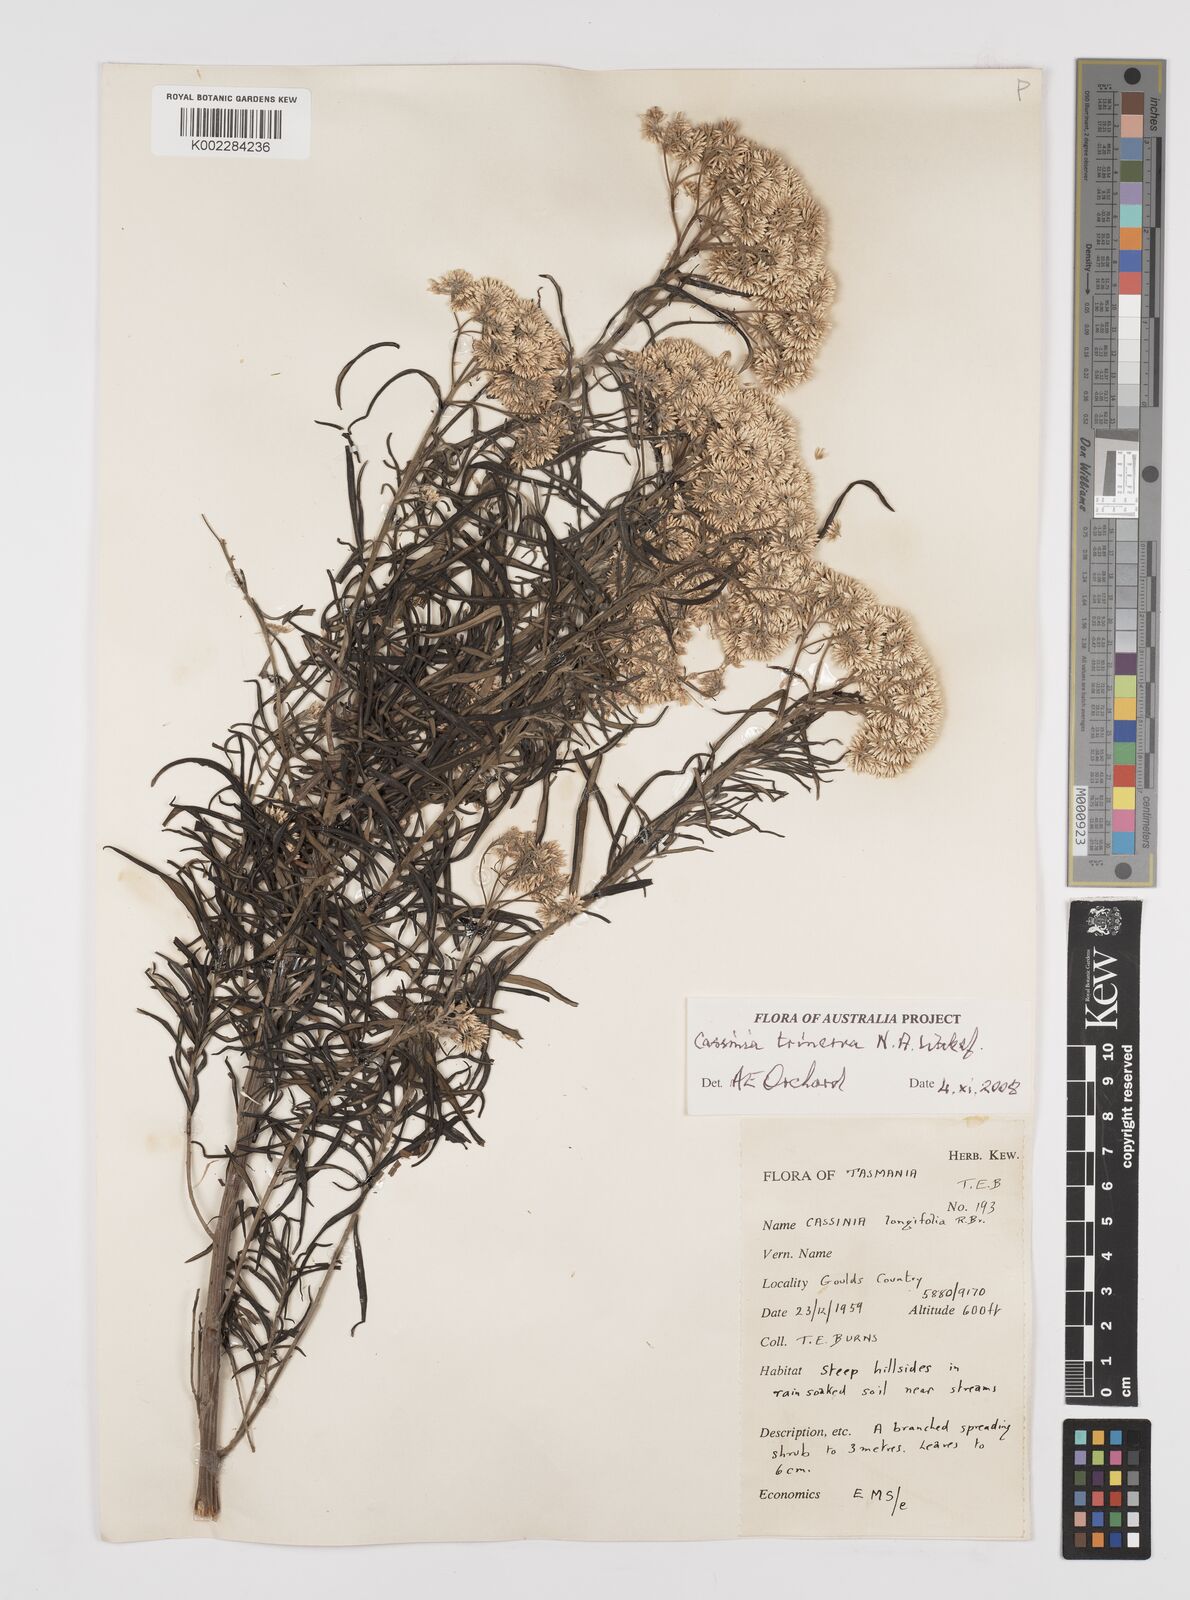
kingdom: Plantae
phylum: Tracheophyta
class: Magnoliopsida
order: Asterales
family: Asteraceae
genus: Cassinia
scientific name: Cassinia trinerva
